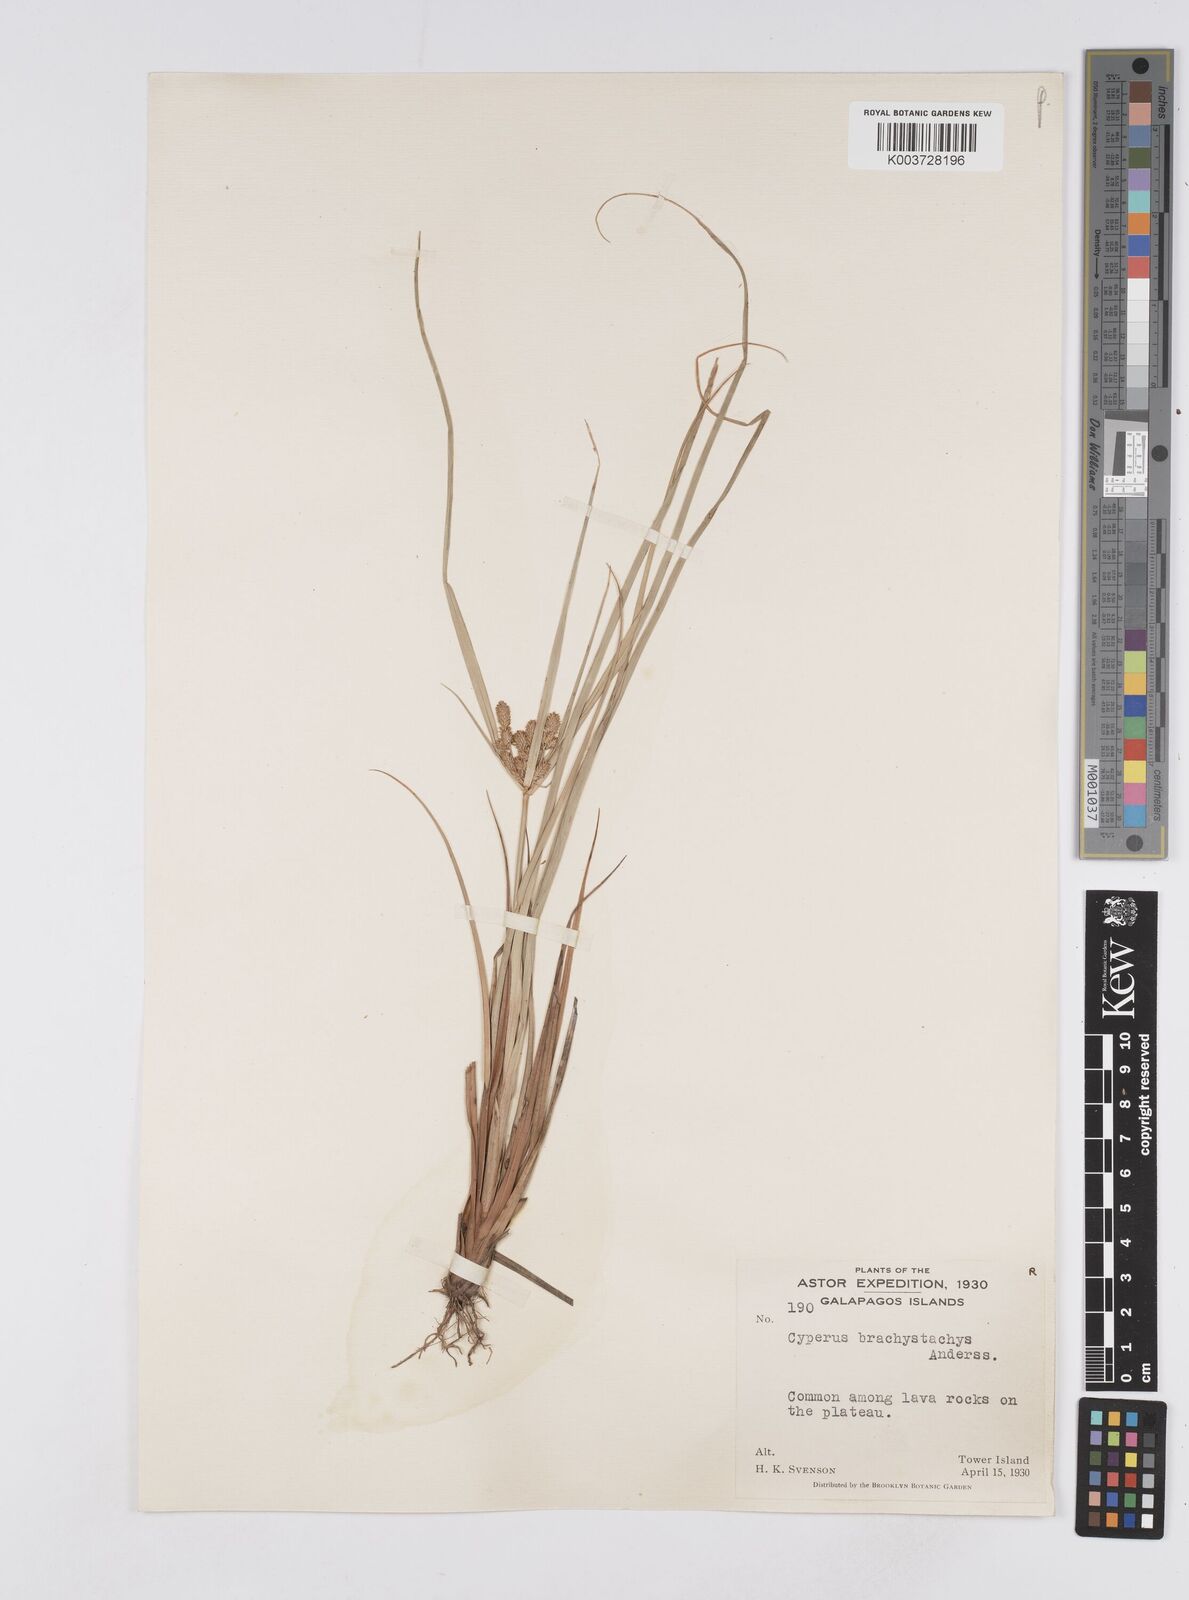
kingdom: Plantae
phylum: Tracheophyta
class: Liliopsida
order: Poales
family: Cyperaceae
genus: Cyperus
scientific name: Cyperus anderssonii
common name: Andersson's sedge
